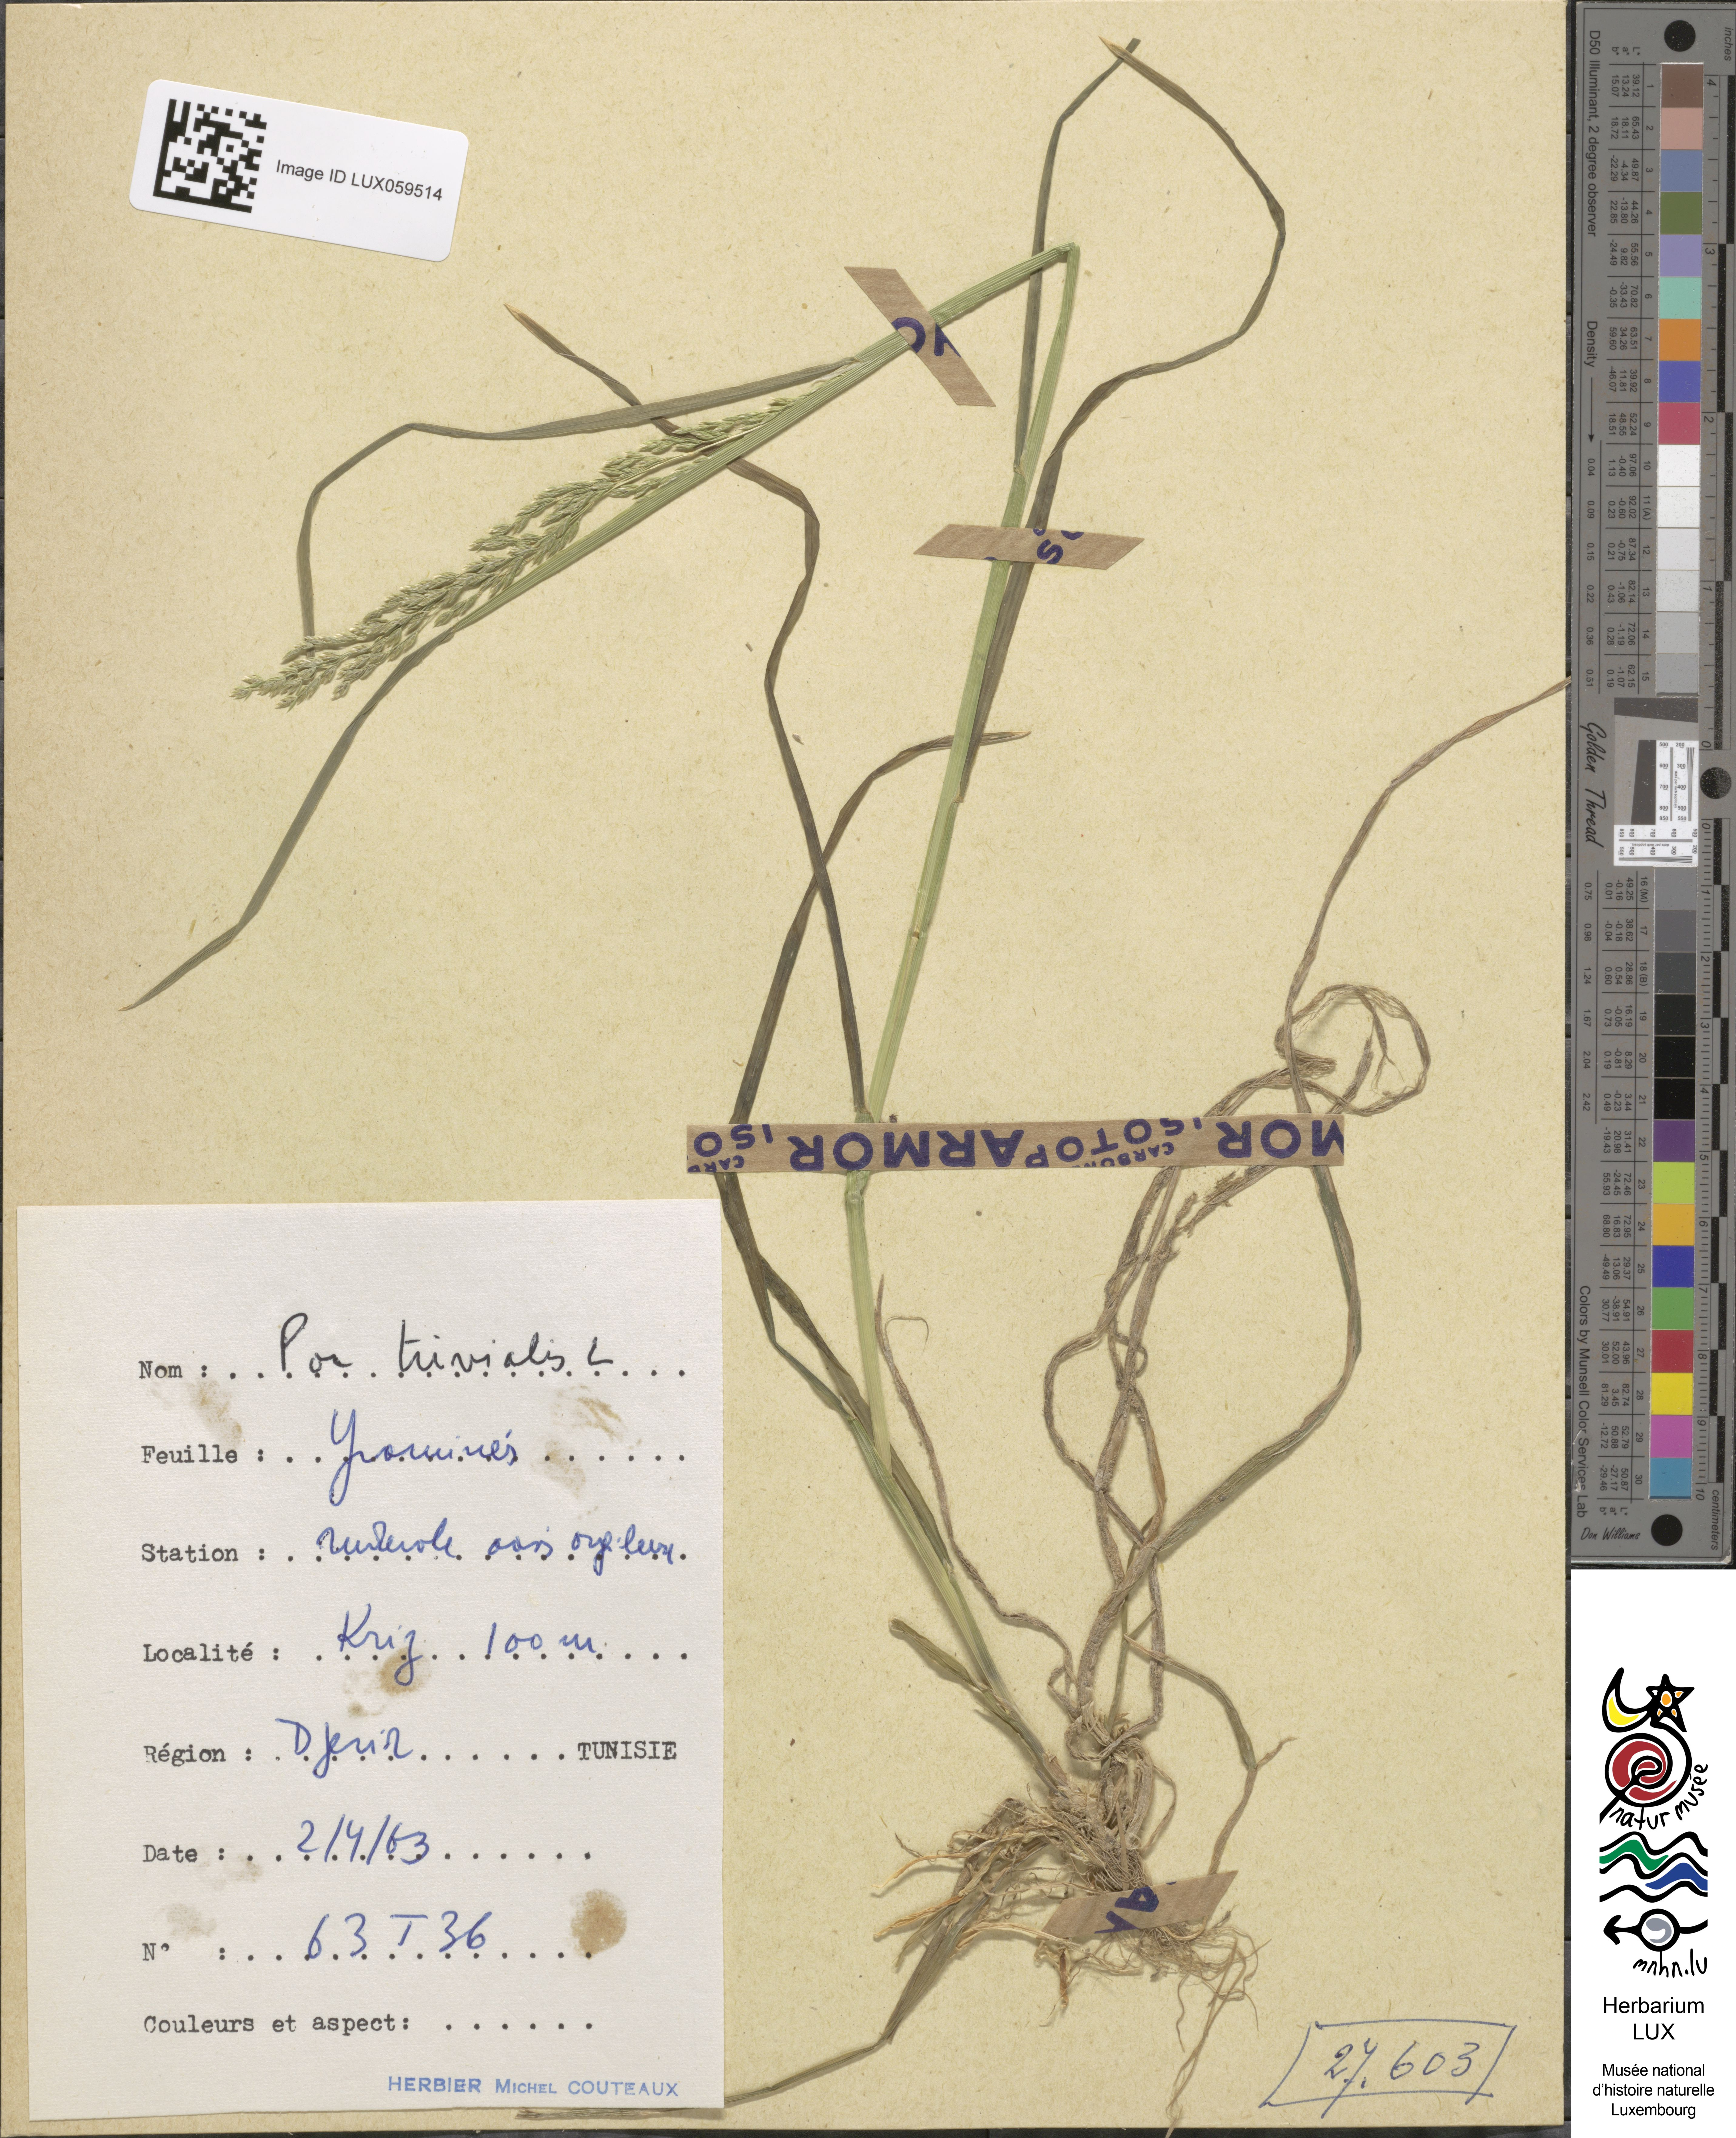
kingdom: Plantae
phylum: Tracheophyta
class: Liliopsida
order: Poales
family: Poaceae
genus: Poa
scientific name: Poa trivialis
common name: Rough bluegrass
